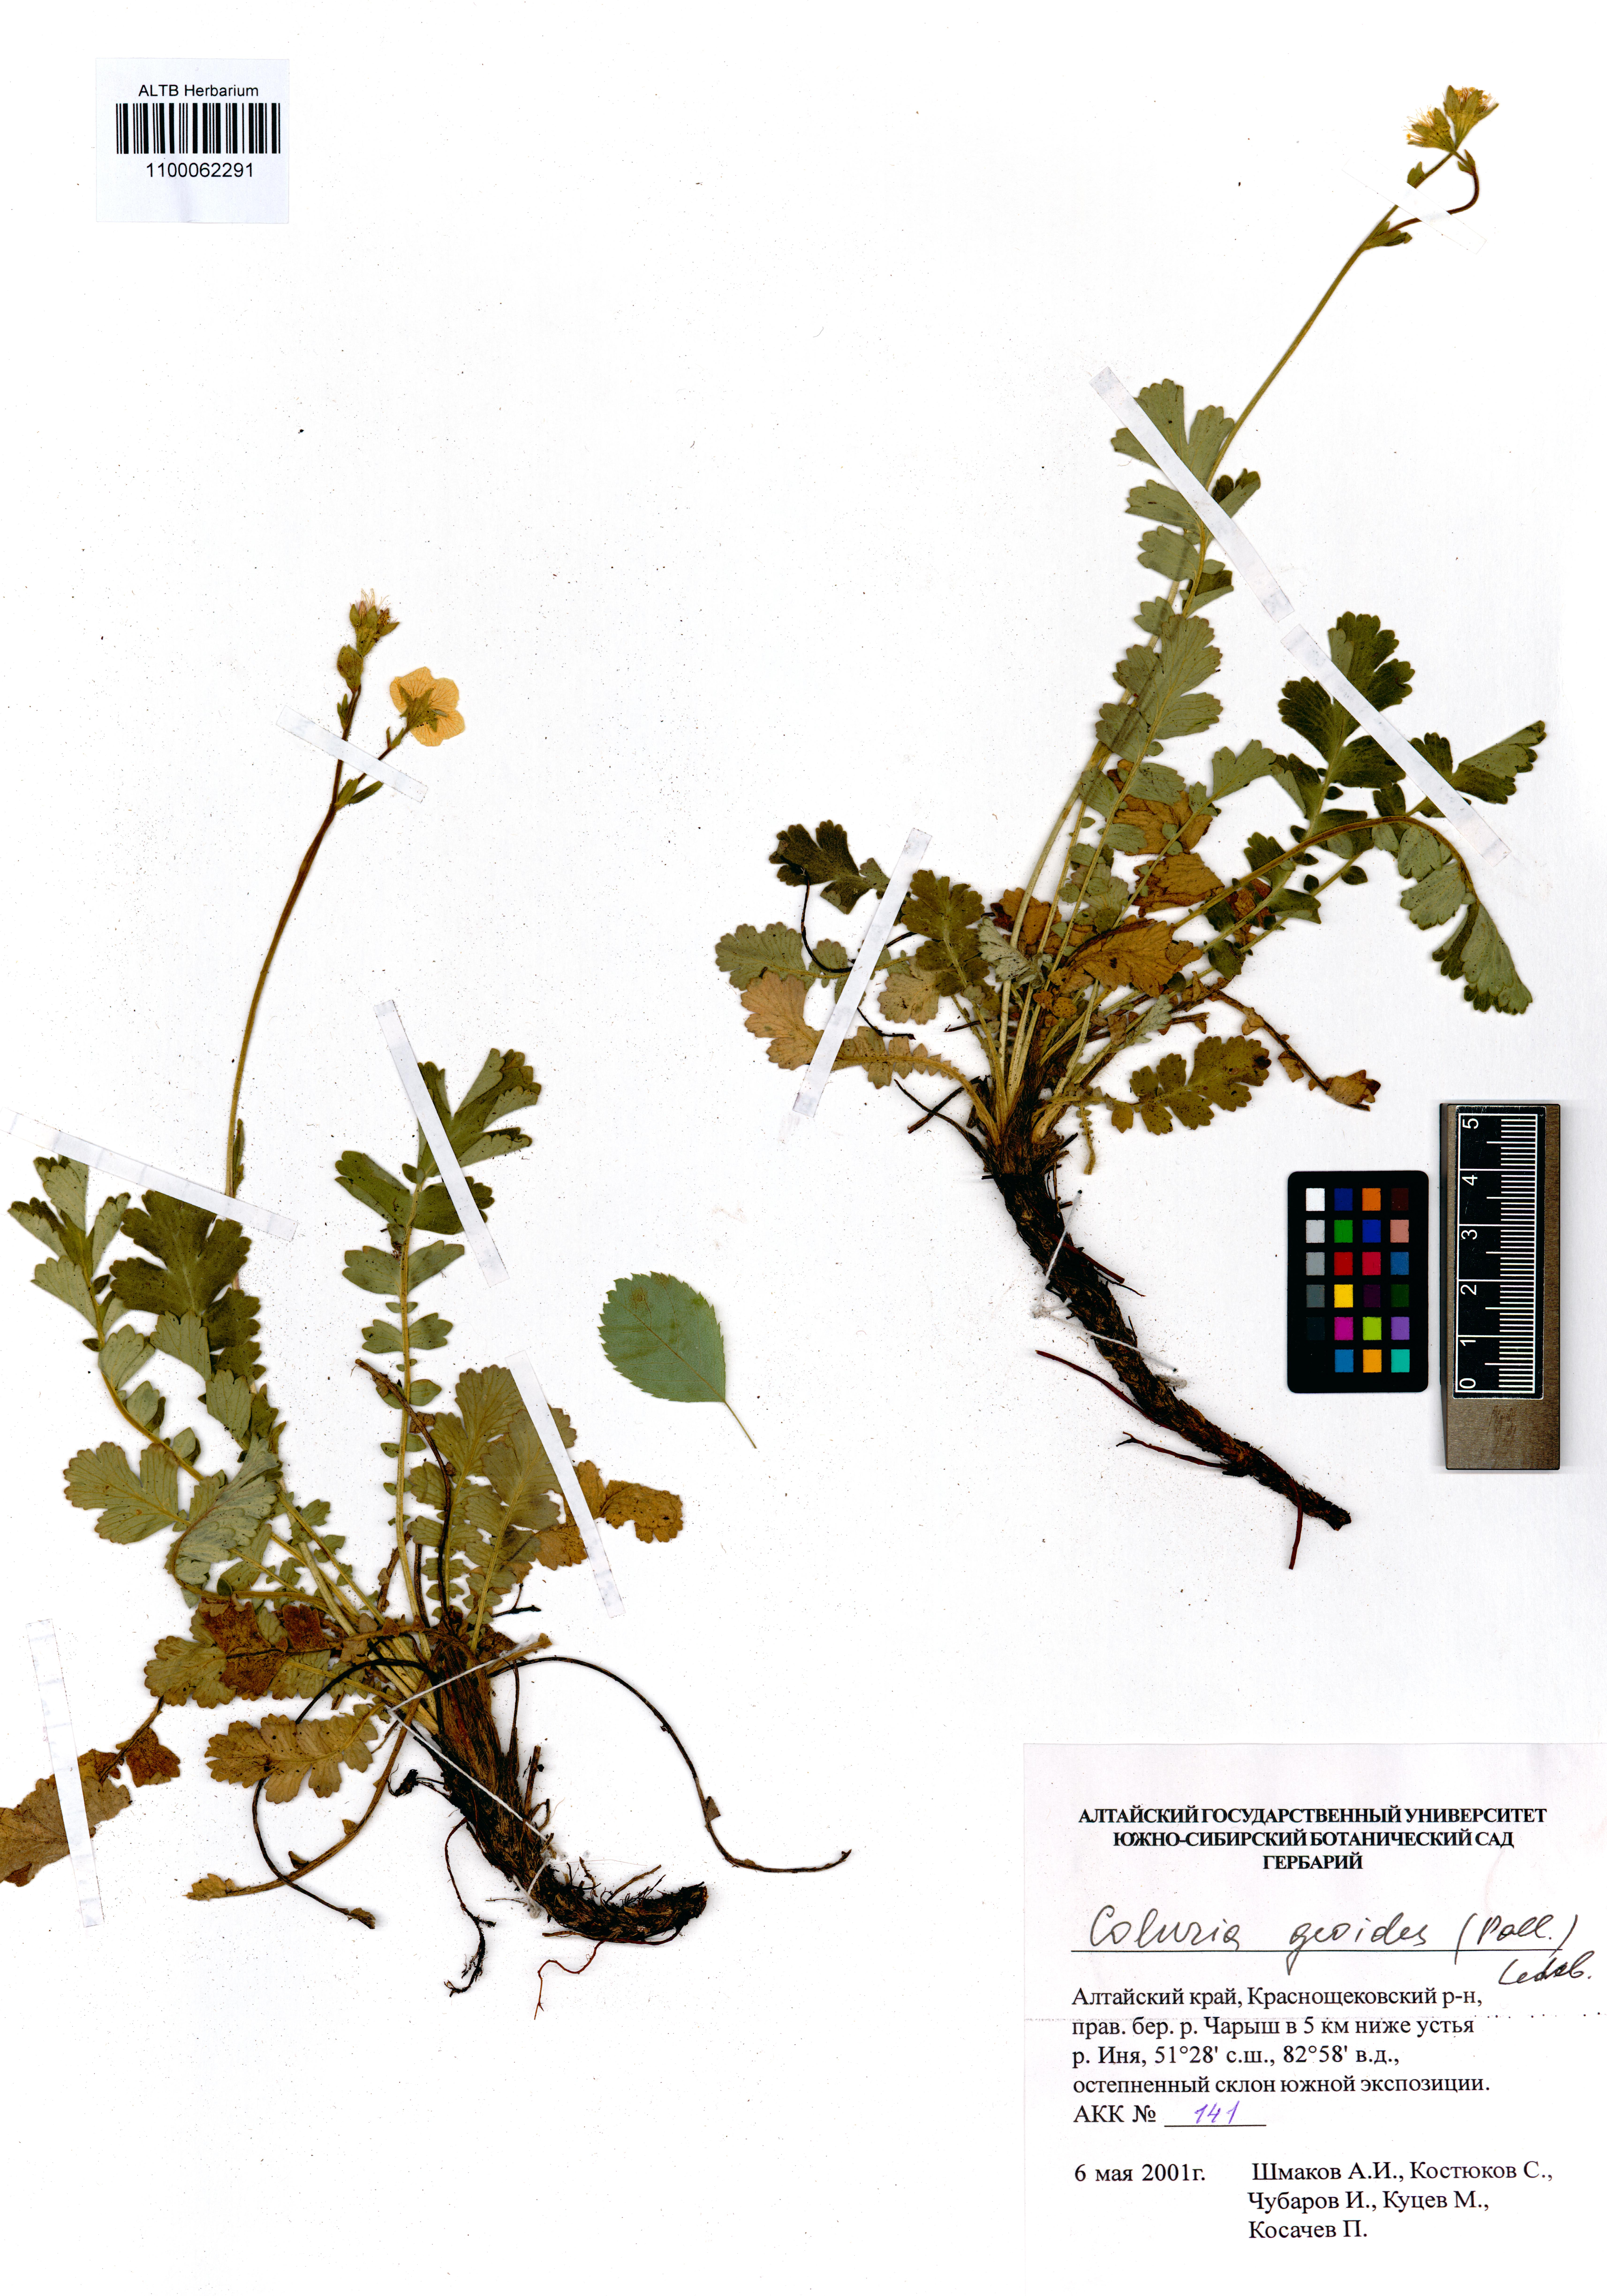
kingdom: Plantae
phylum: Tracheophyta
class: Magnoliopsida
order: Rosales
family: Rosaceae
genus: Geum
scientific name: Geum geoides
